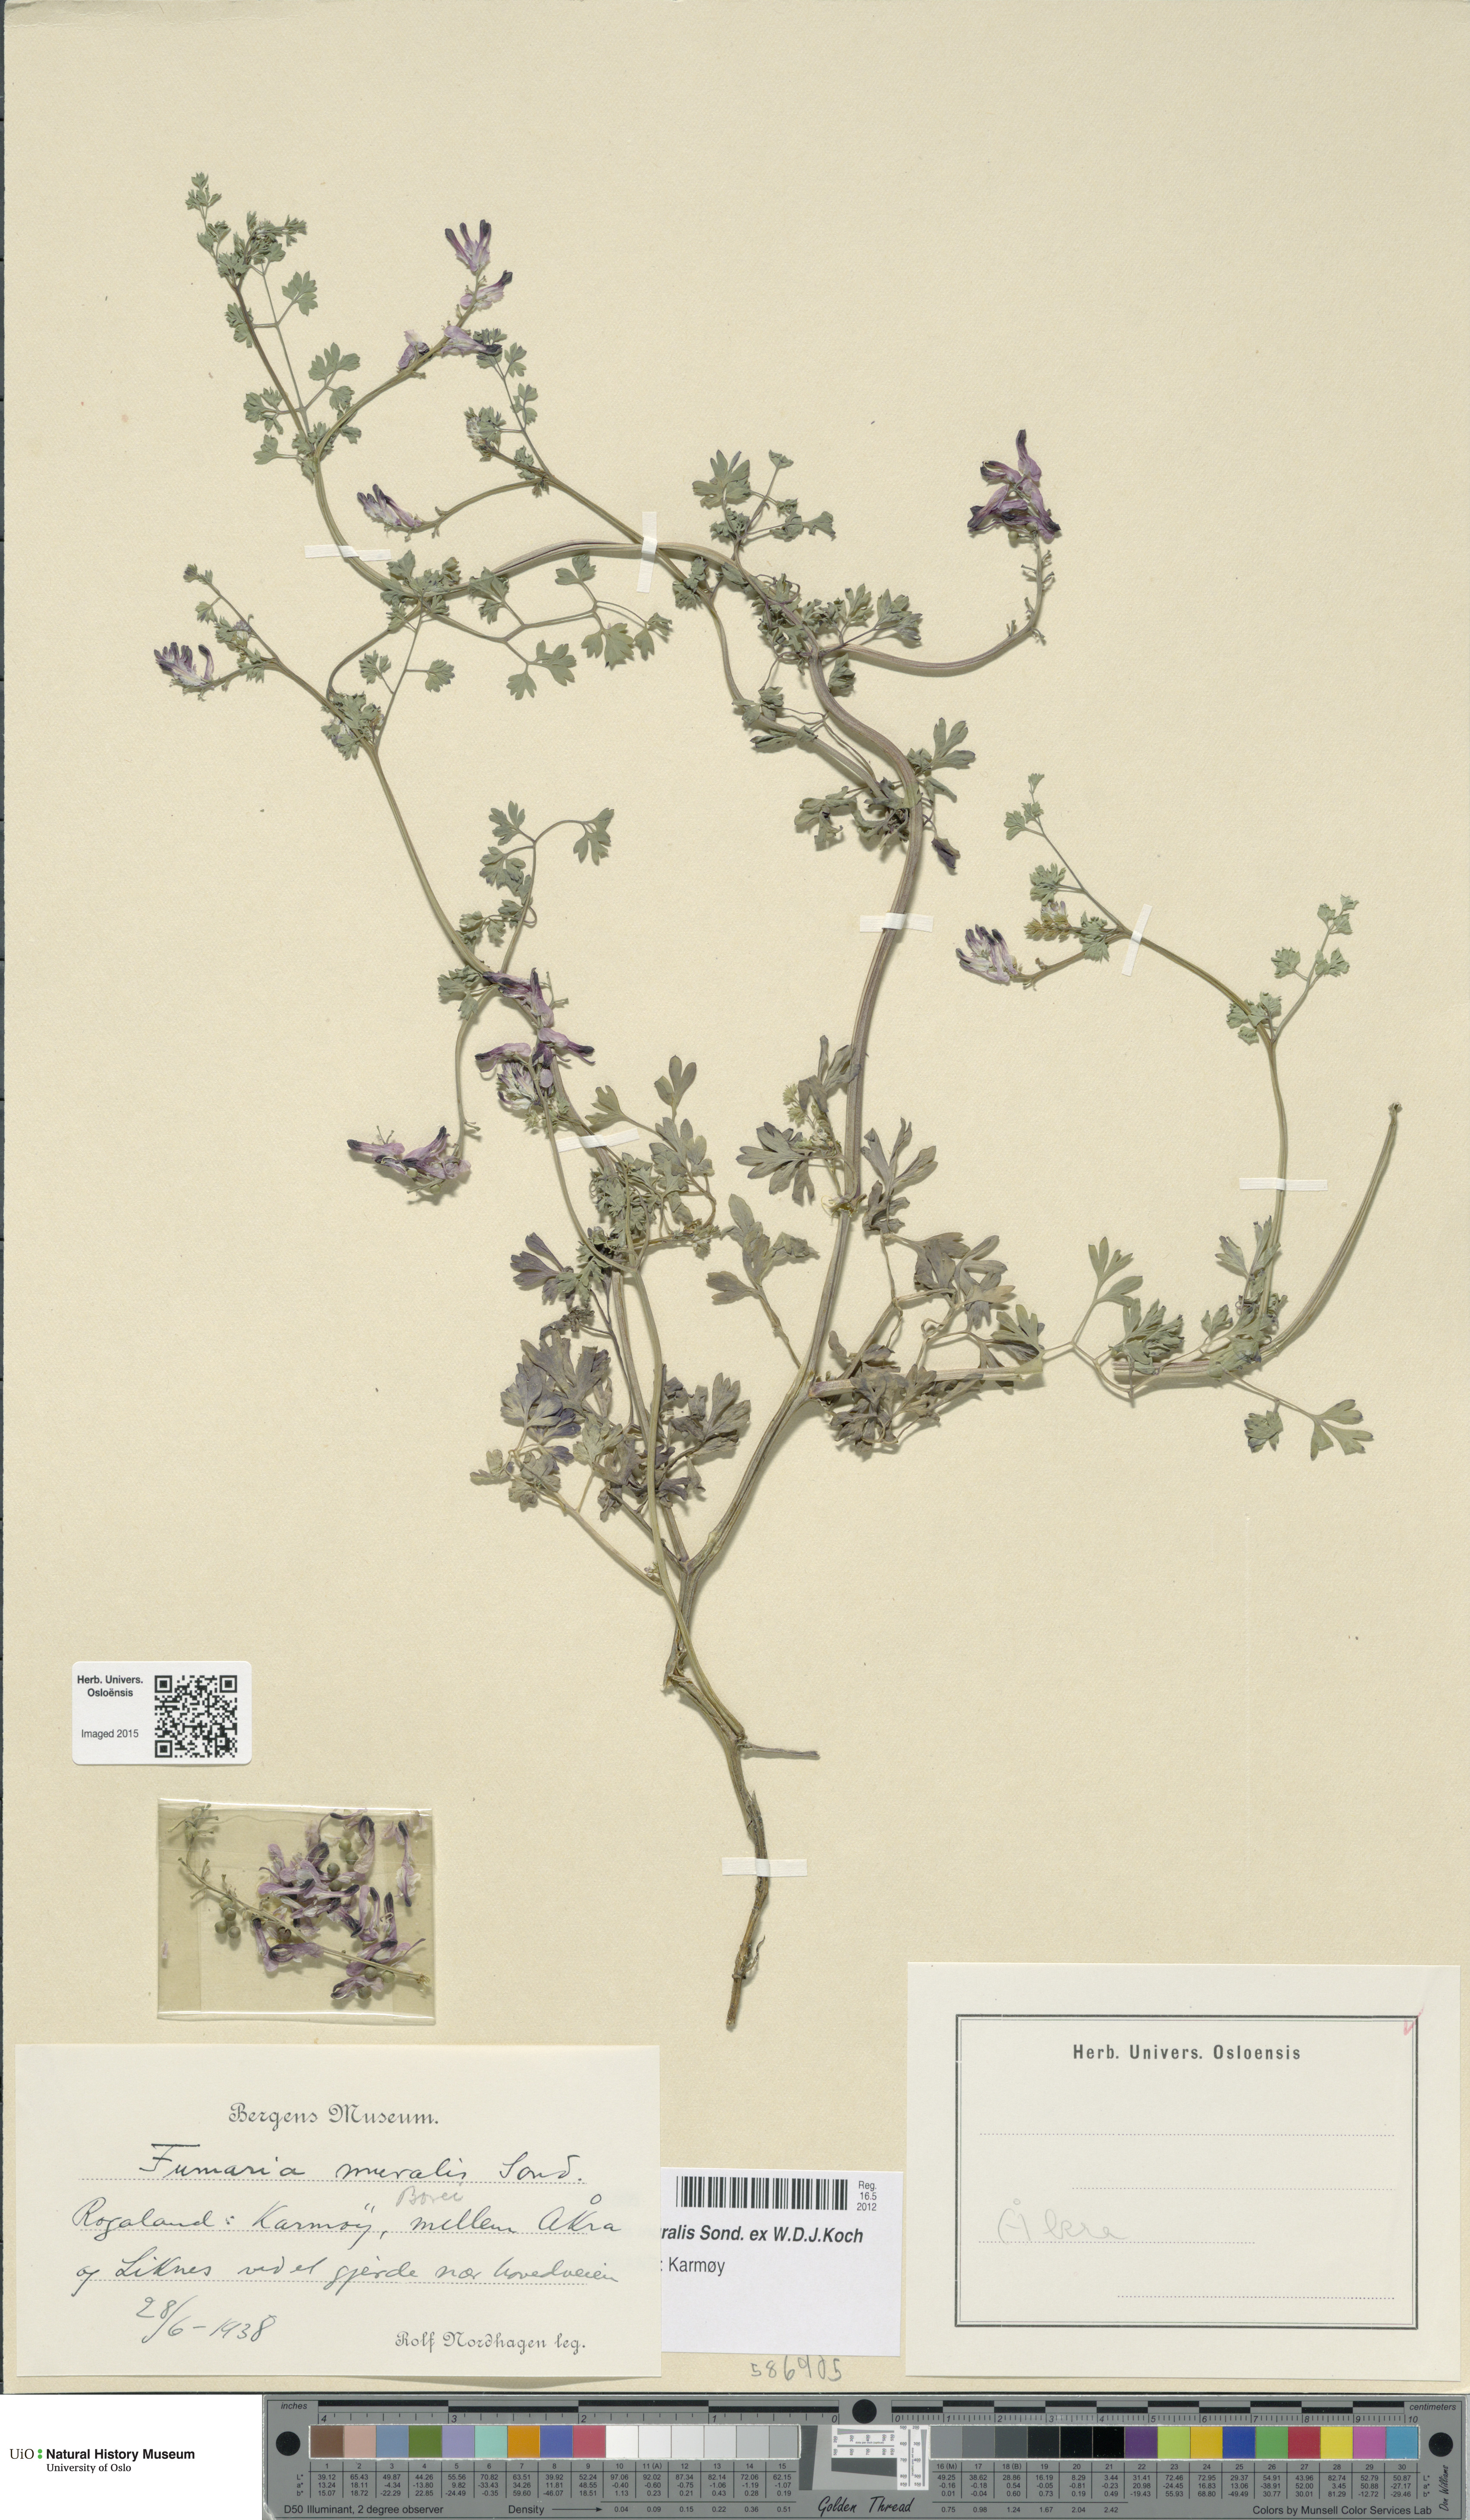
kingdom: Plantae
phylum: Tracheophyta
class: Magnoliopsida
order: Ranunculales
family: Papaveraceae
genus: Fumaria
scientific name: Fumaria muralis
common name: Common ramping-fumitory
